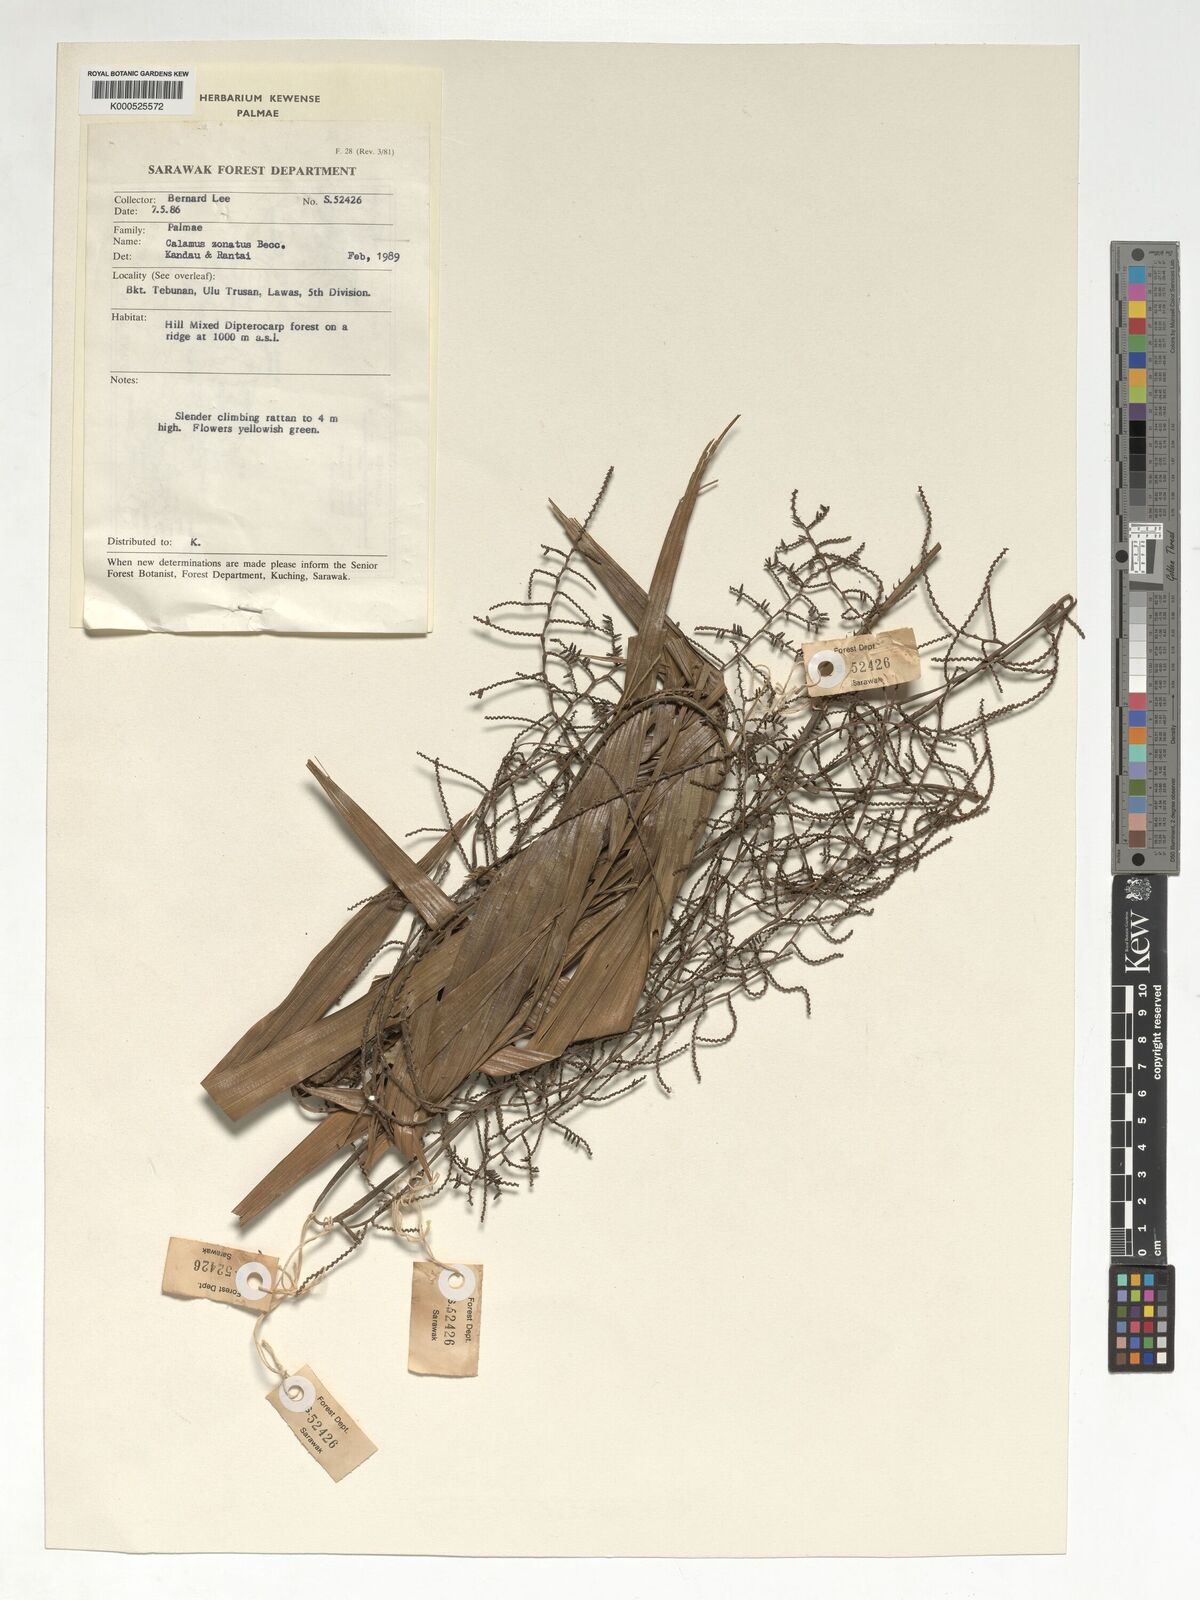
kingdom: Plantae
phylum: Tracheophyta
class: Liliopsida
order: Arecales
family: Arecaceae
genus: Calamus
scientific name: Calamus zonatus
